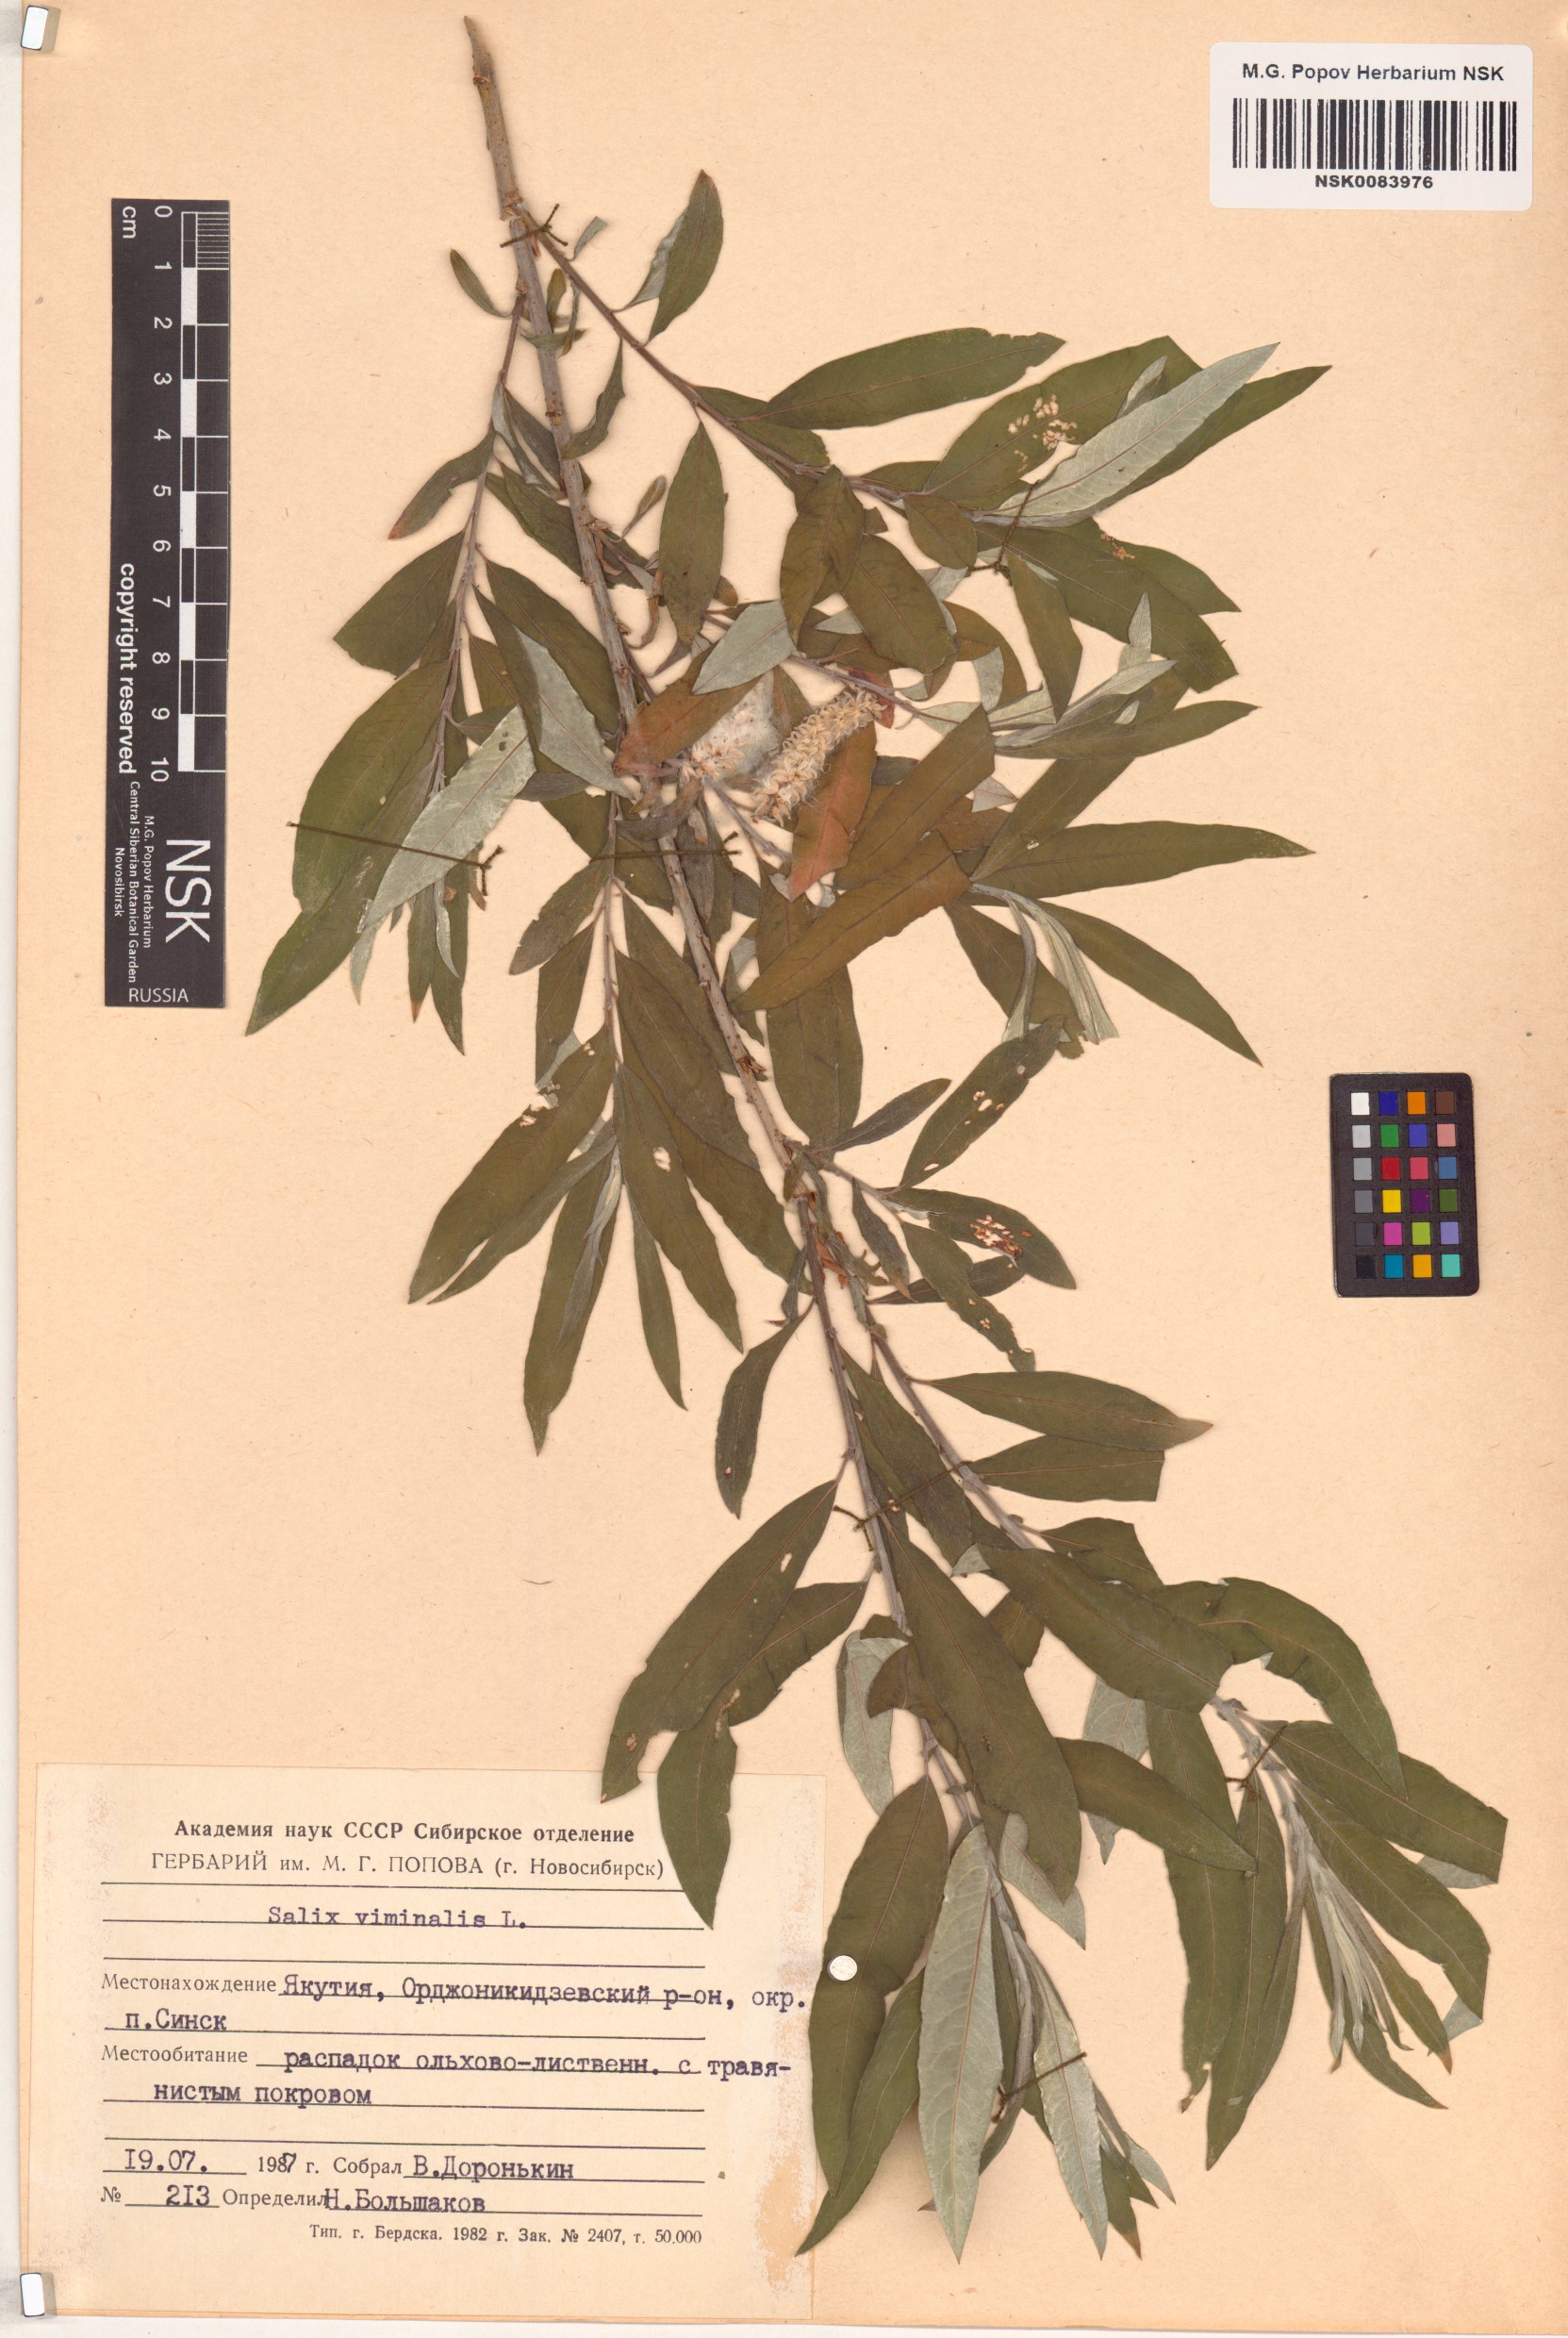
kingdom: Plantae
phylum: Tracheophyta
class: Magnoliopsida
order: Malpighiales
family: Salicaceae
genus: Salix
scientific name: Salix viminalis
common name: Osier
